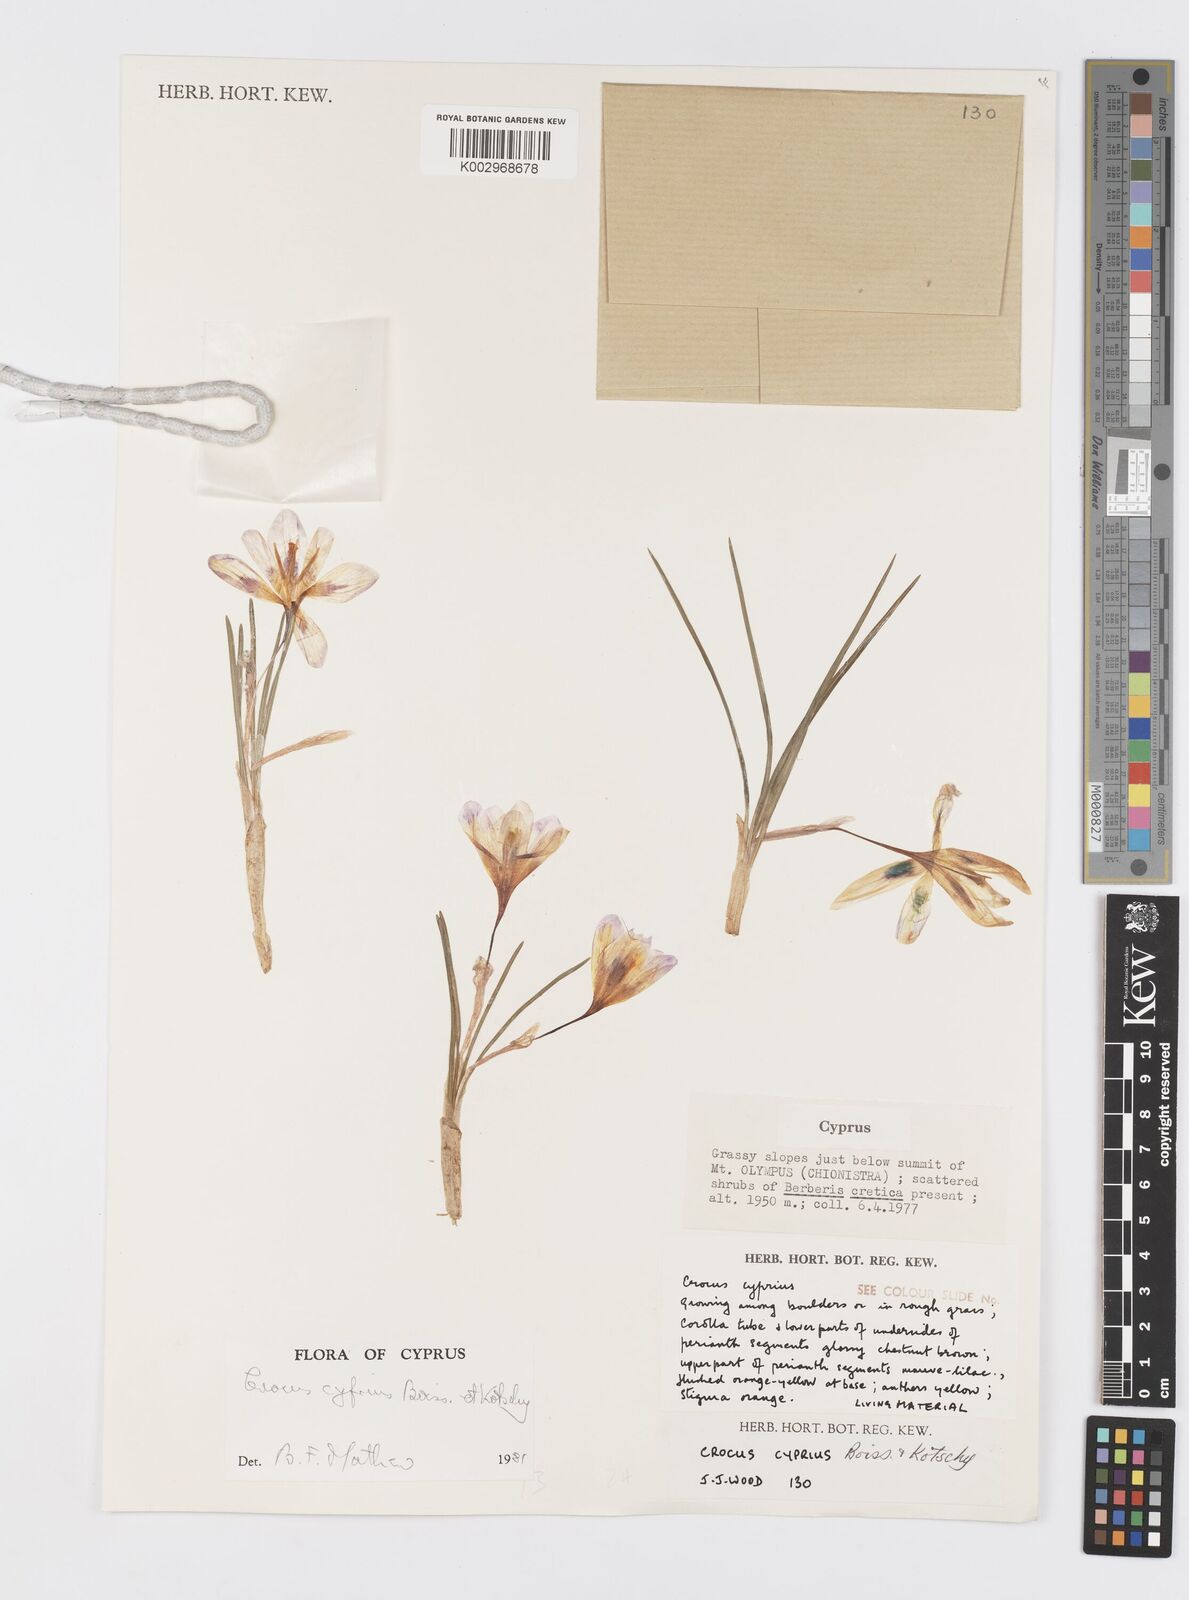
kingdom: Plantae
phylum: Tracheophyta
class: Liliopsida
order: Asparagales
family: Iridaceae
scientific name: Iridaceae
